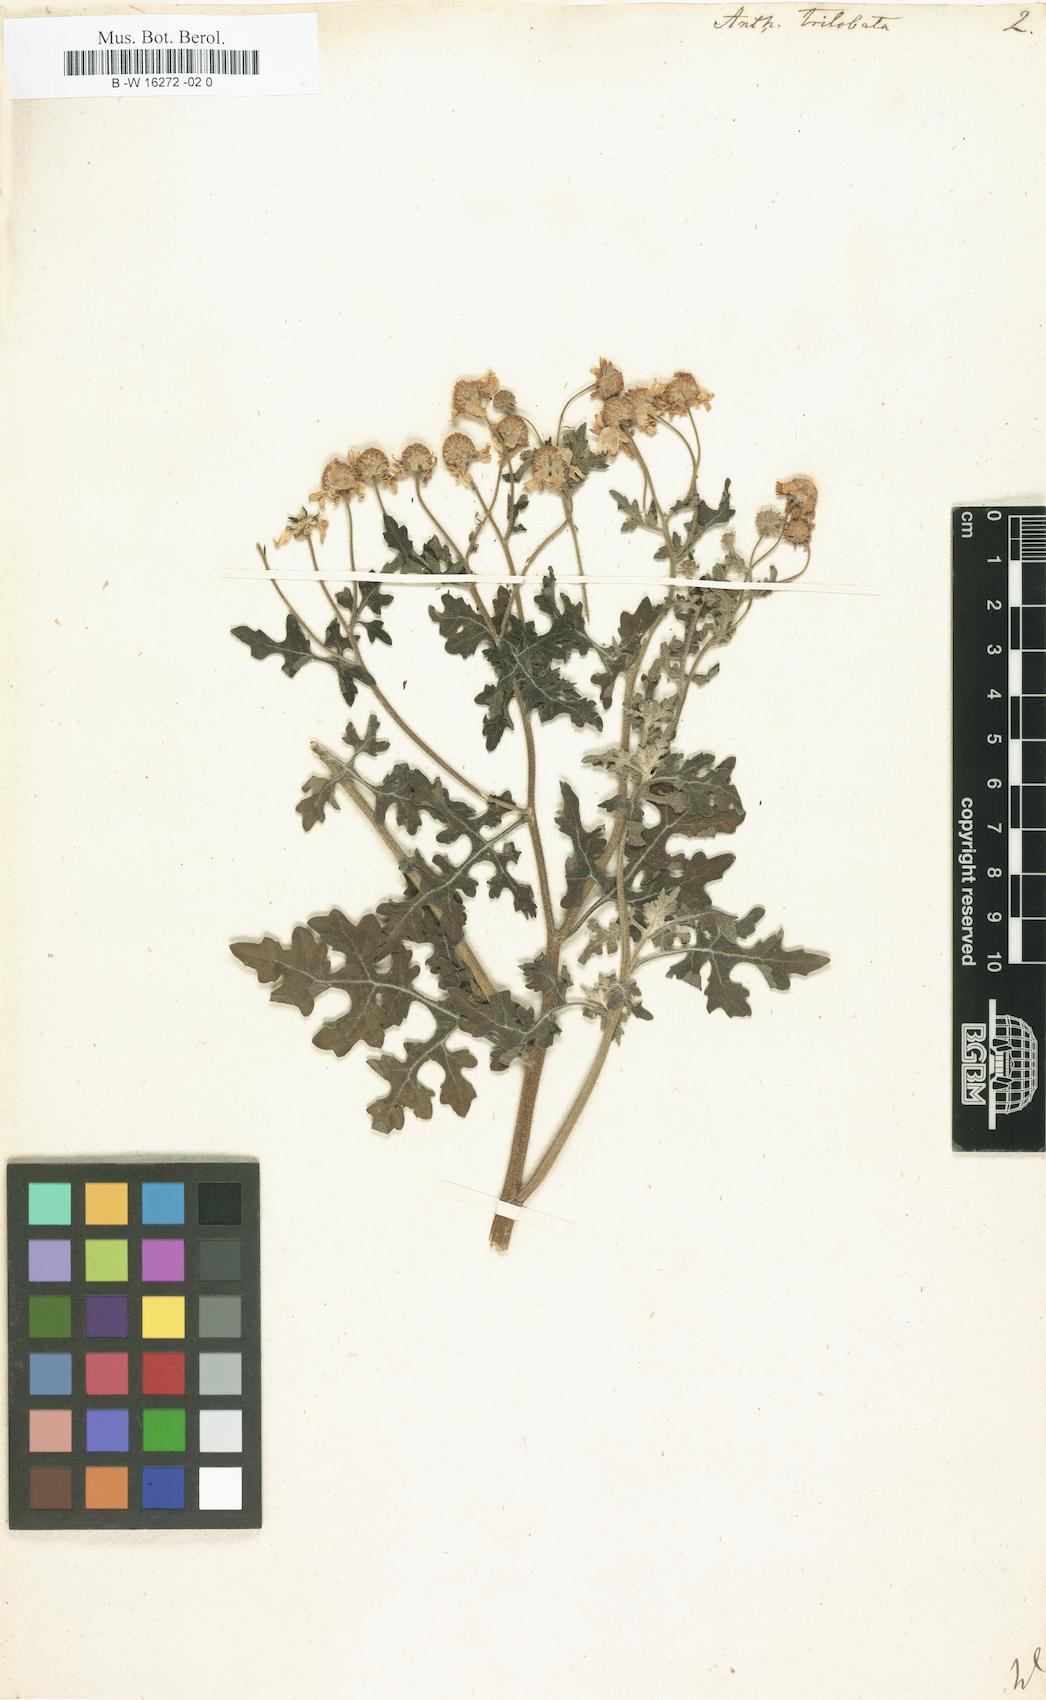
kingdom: Plantae
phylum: Tracheophyta
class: Magnoliopsida
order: Asterales
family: Asteraceae
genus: Zaluzania
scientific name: Zaluzania triloba
